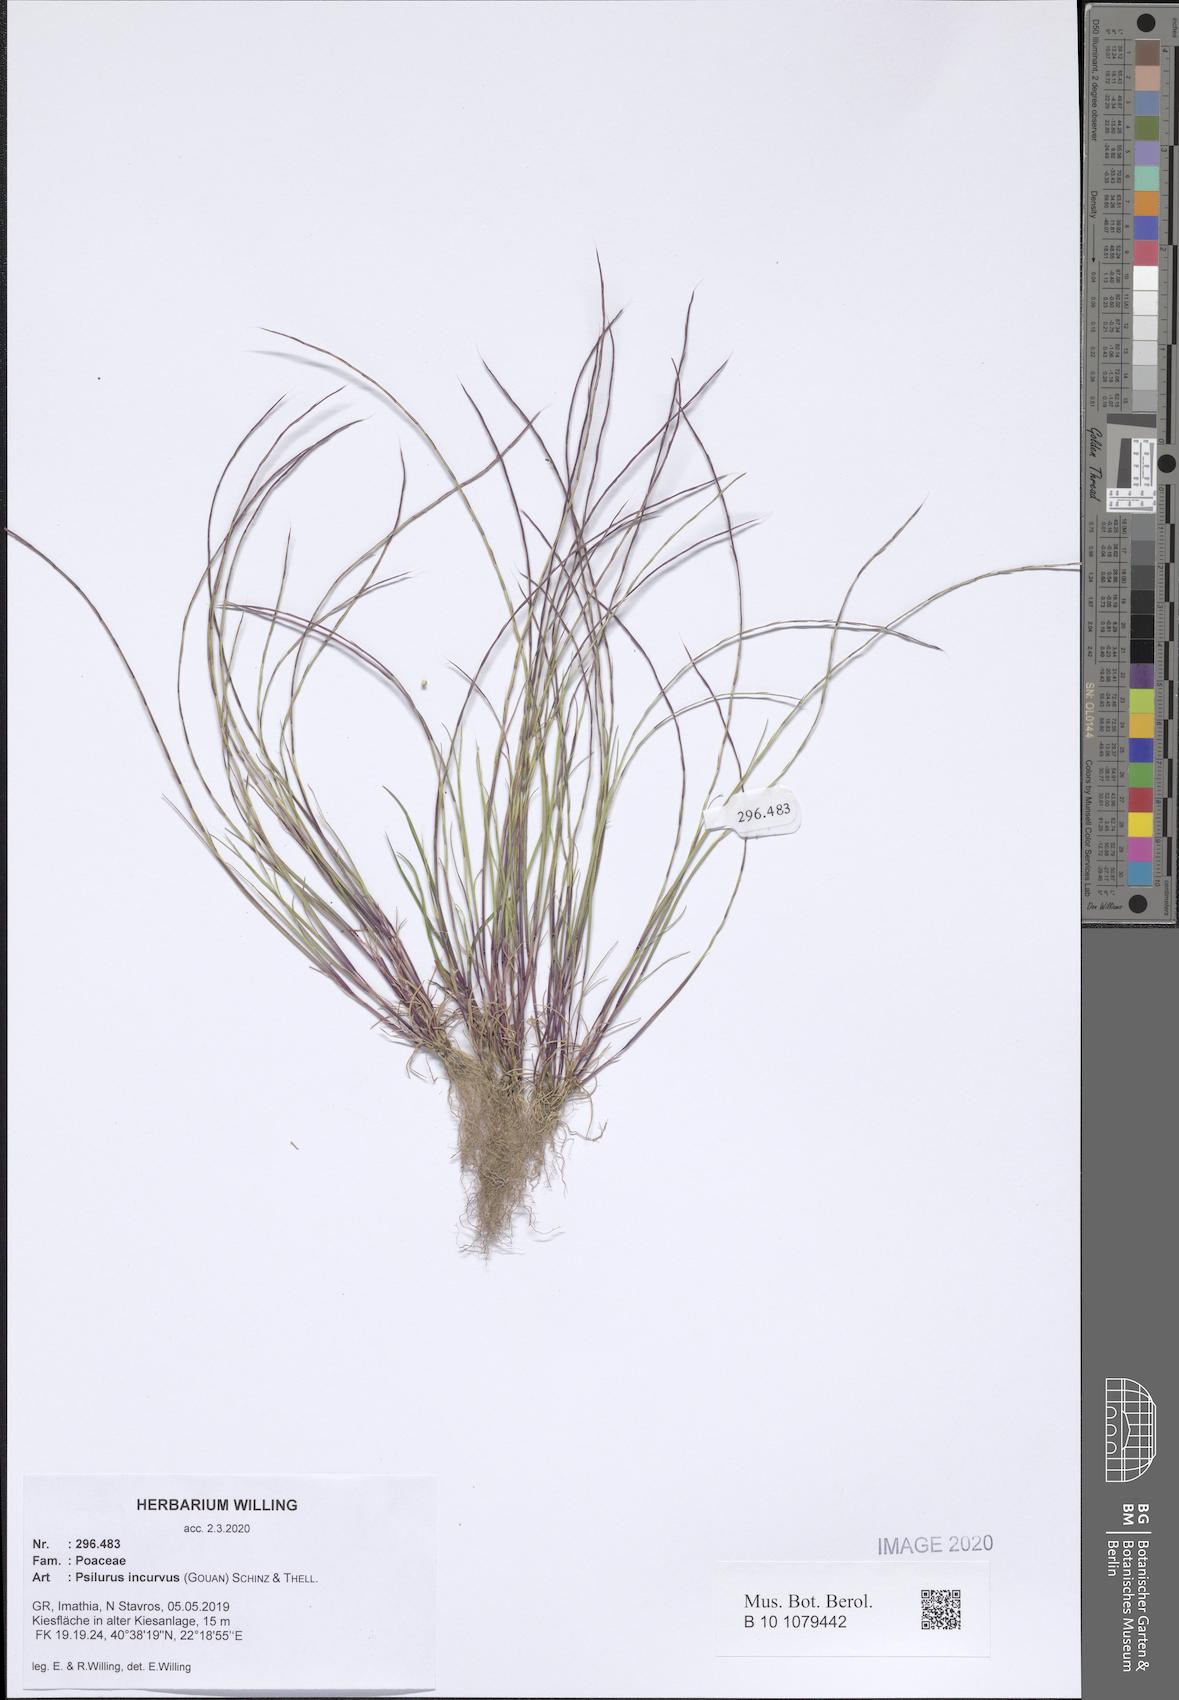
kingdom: Plantae
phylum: Tracheophyta
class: Liliopsida
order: Poales
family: Poaceae
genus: Festuca
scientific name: Festuca incurva
